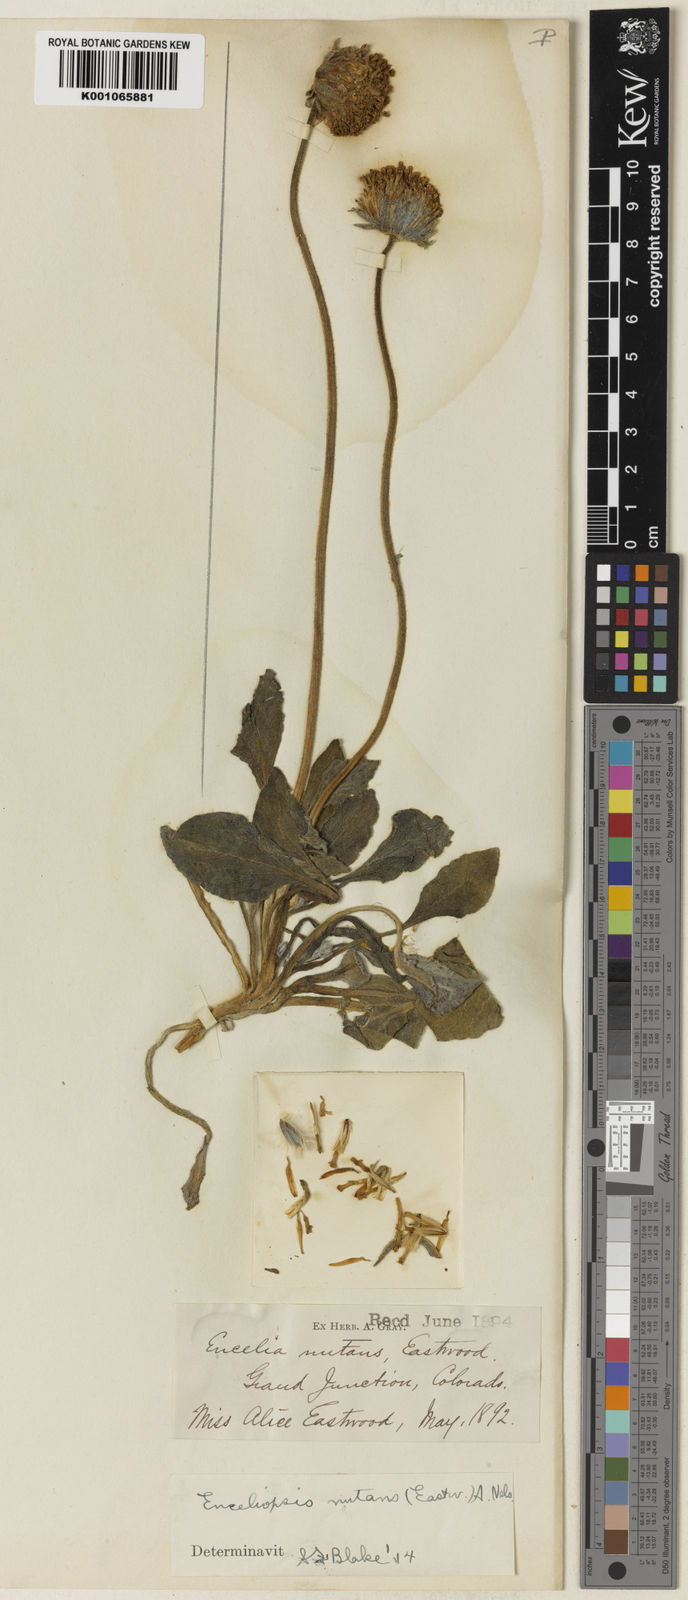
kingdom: Plantae
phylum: Tracheophyta
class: Magnoliopsida
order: Asterales
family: Asteraceae
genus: Encelia
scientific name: Encelia nutans
